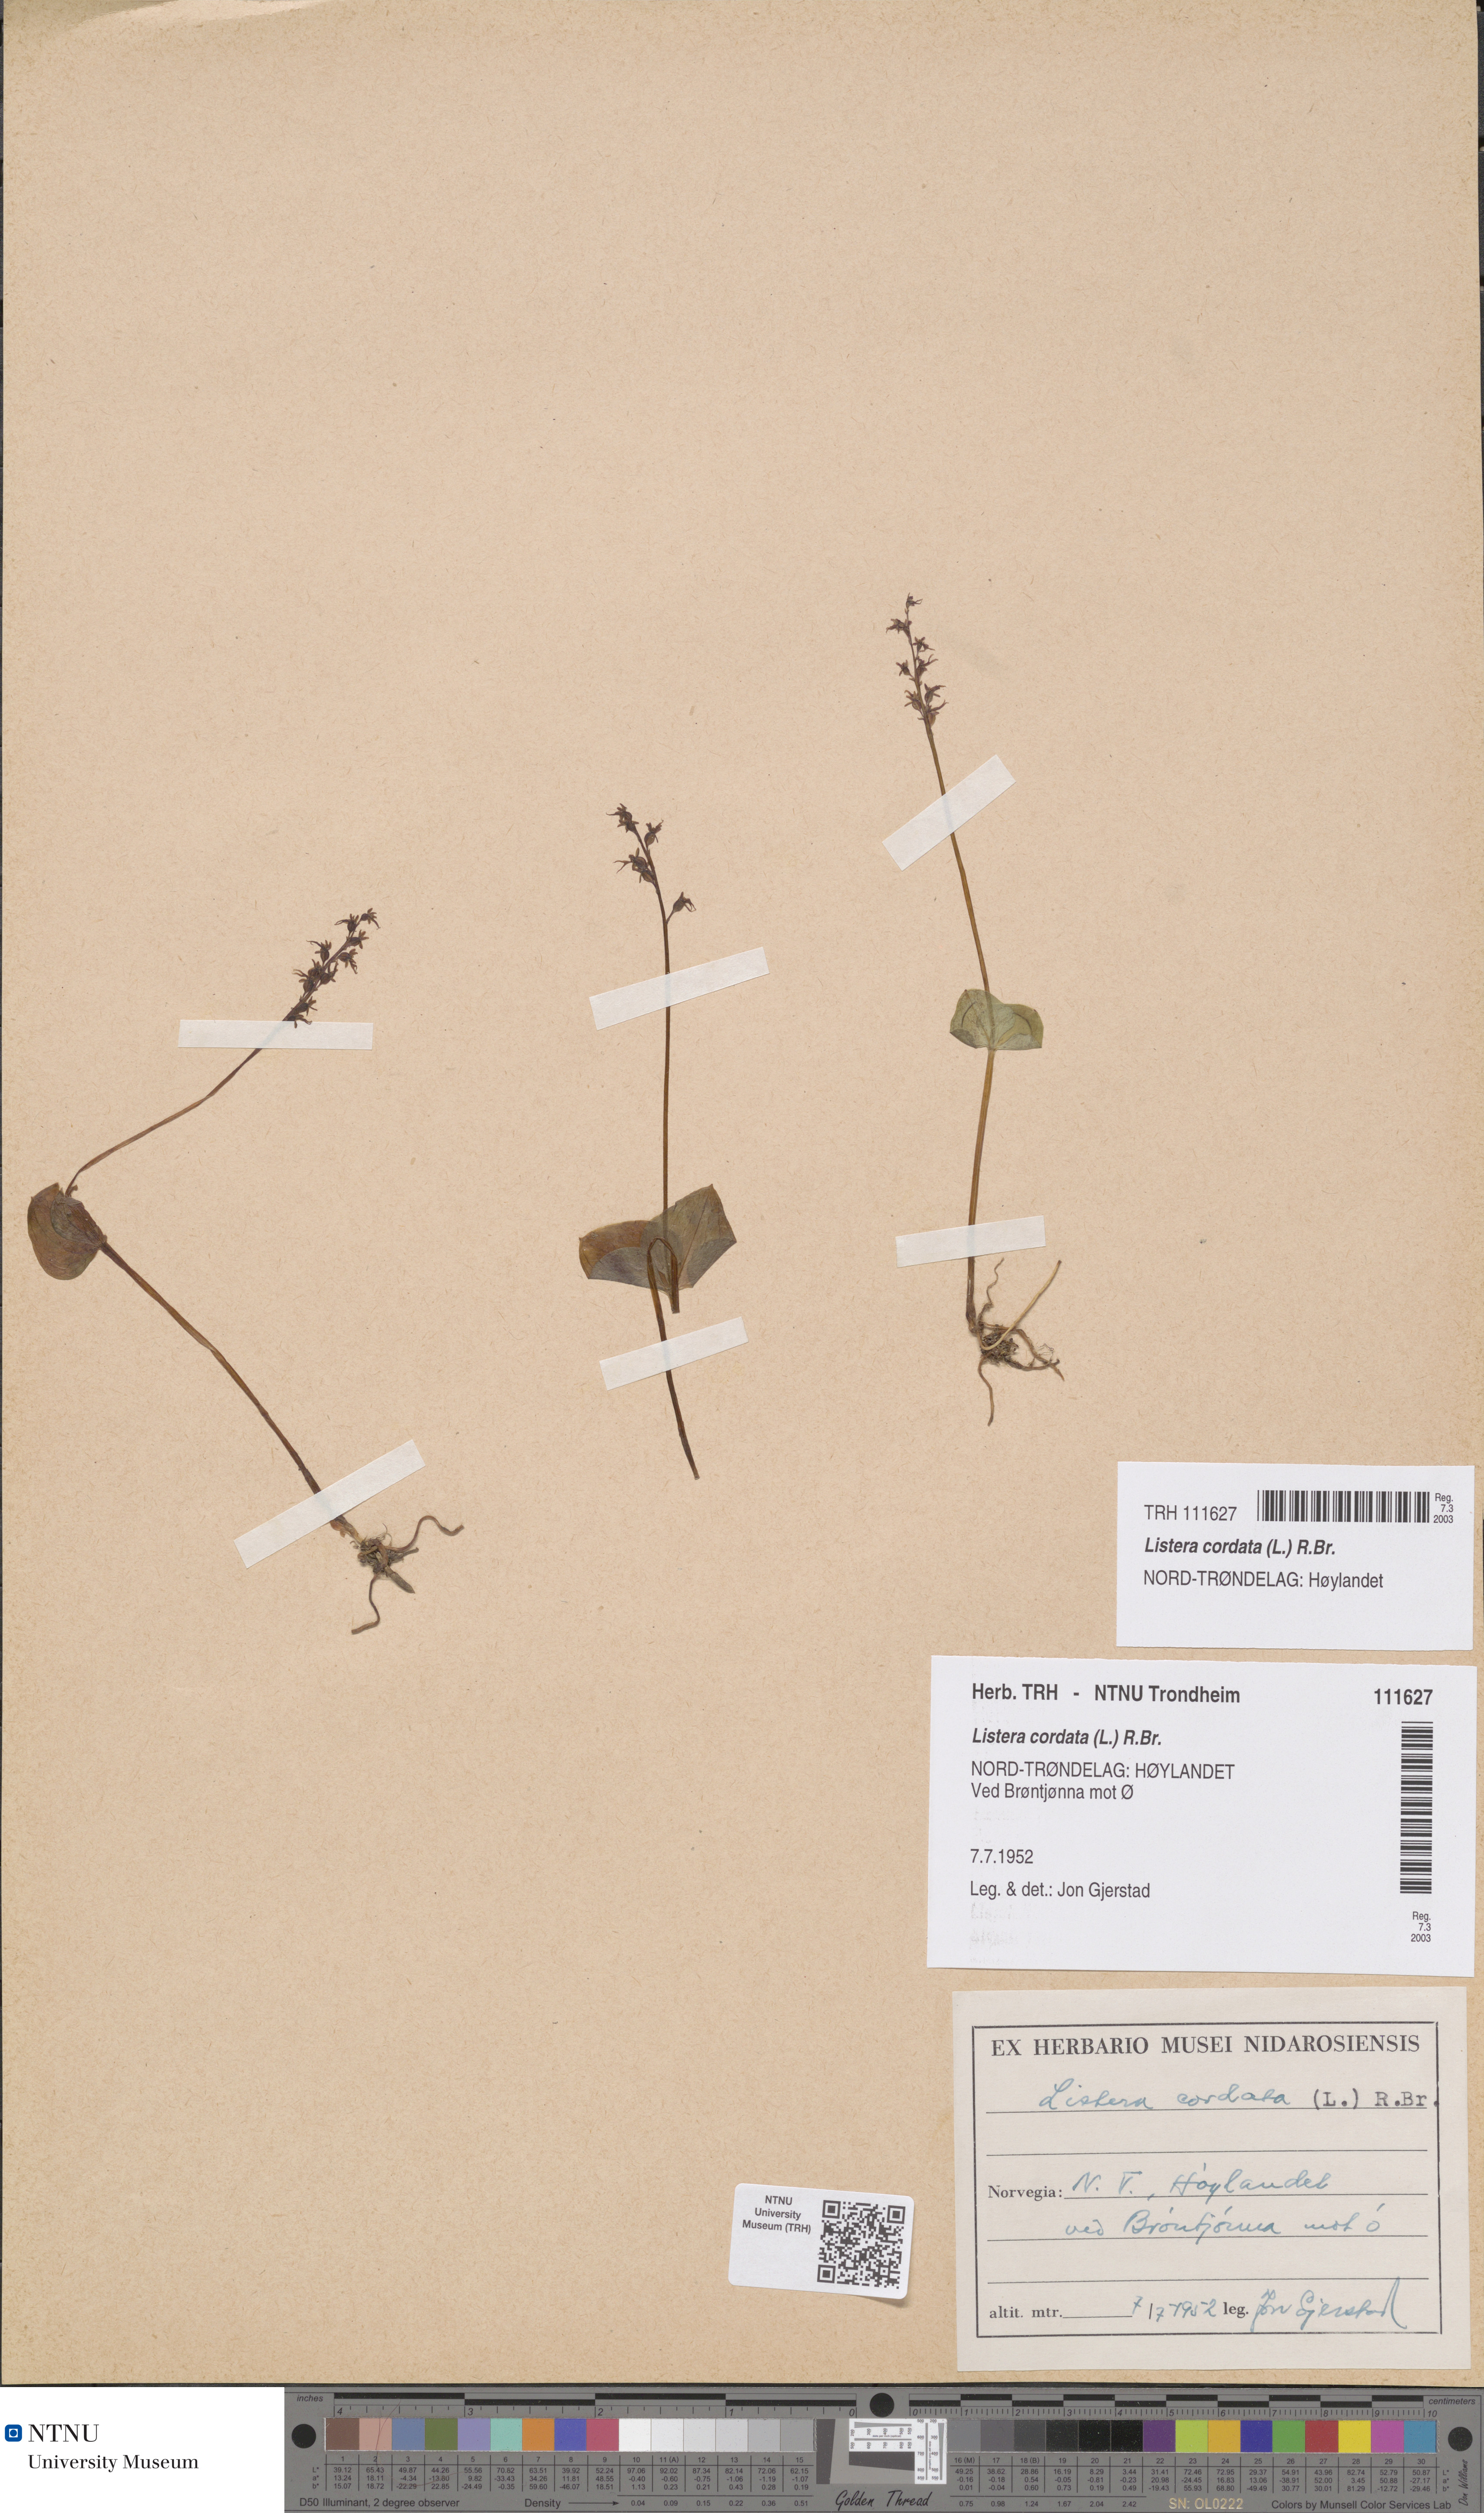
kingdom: Plantae
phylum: Tracheophyta
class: Liliopsida
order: Asparagales
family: Orchidaceae
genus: Neottia
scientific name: Neottia cordata
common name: Lesser twayblade
